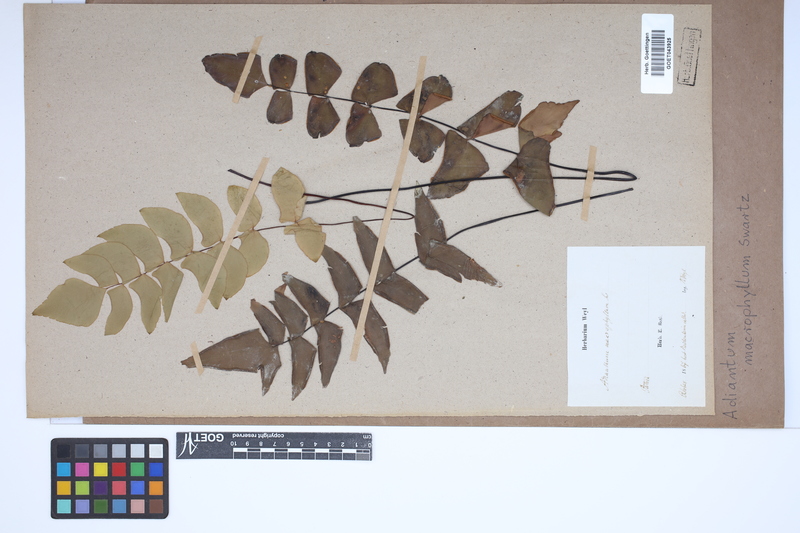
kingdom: Plantae
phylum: Tracheophyta
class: Polypodiopsida
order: Polypodiales
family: Pteridaceae
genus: Adiantum
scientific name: Adiantum macrophyllum
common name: Largeleaf maidenhair
